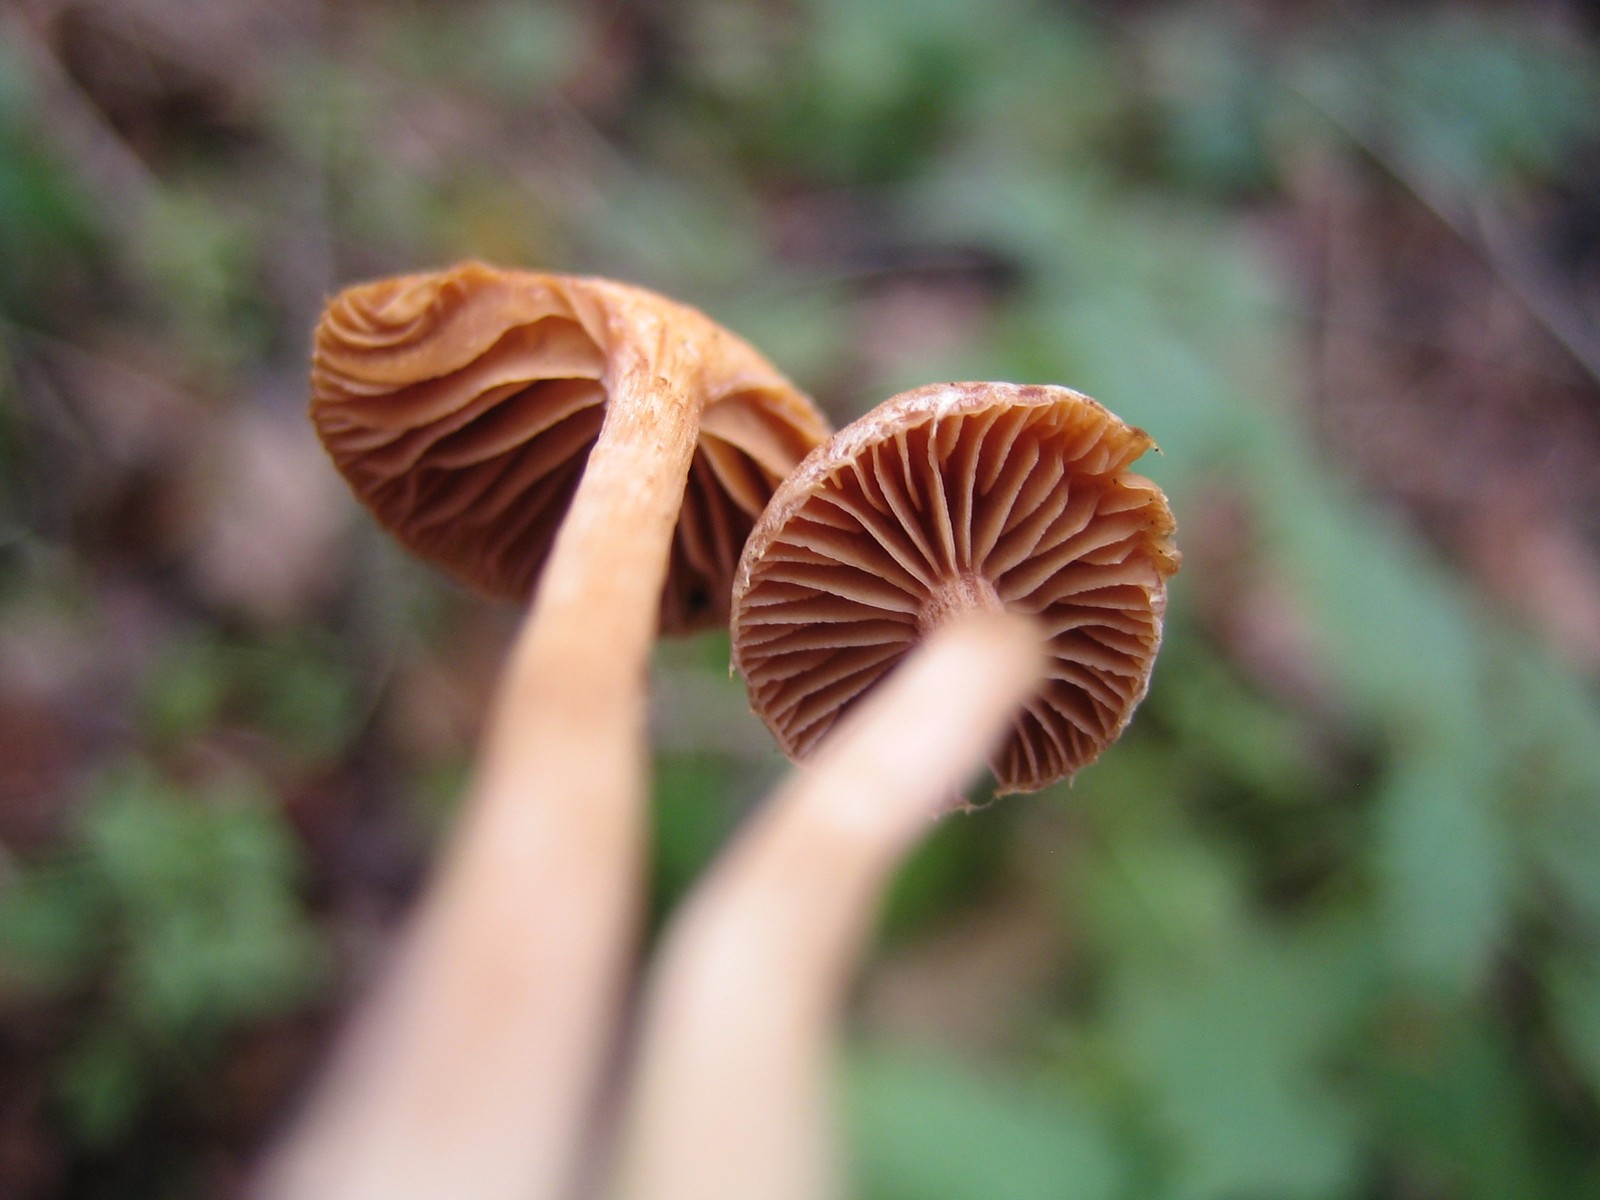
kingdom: Fungi
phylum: Basidiomycota
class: Agaricomycetes
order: Agaricales
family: Tubariaceae
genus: Tubaria
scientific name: Tubaria furfuracea
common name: kliddet fnughat
